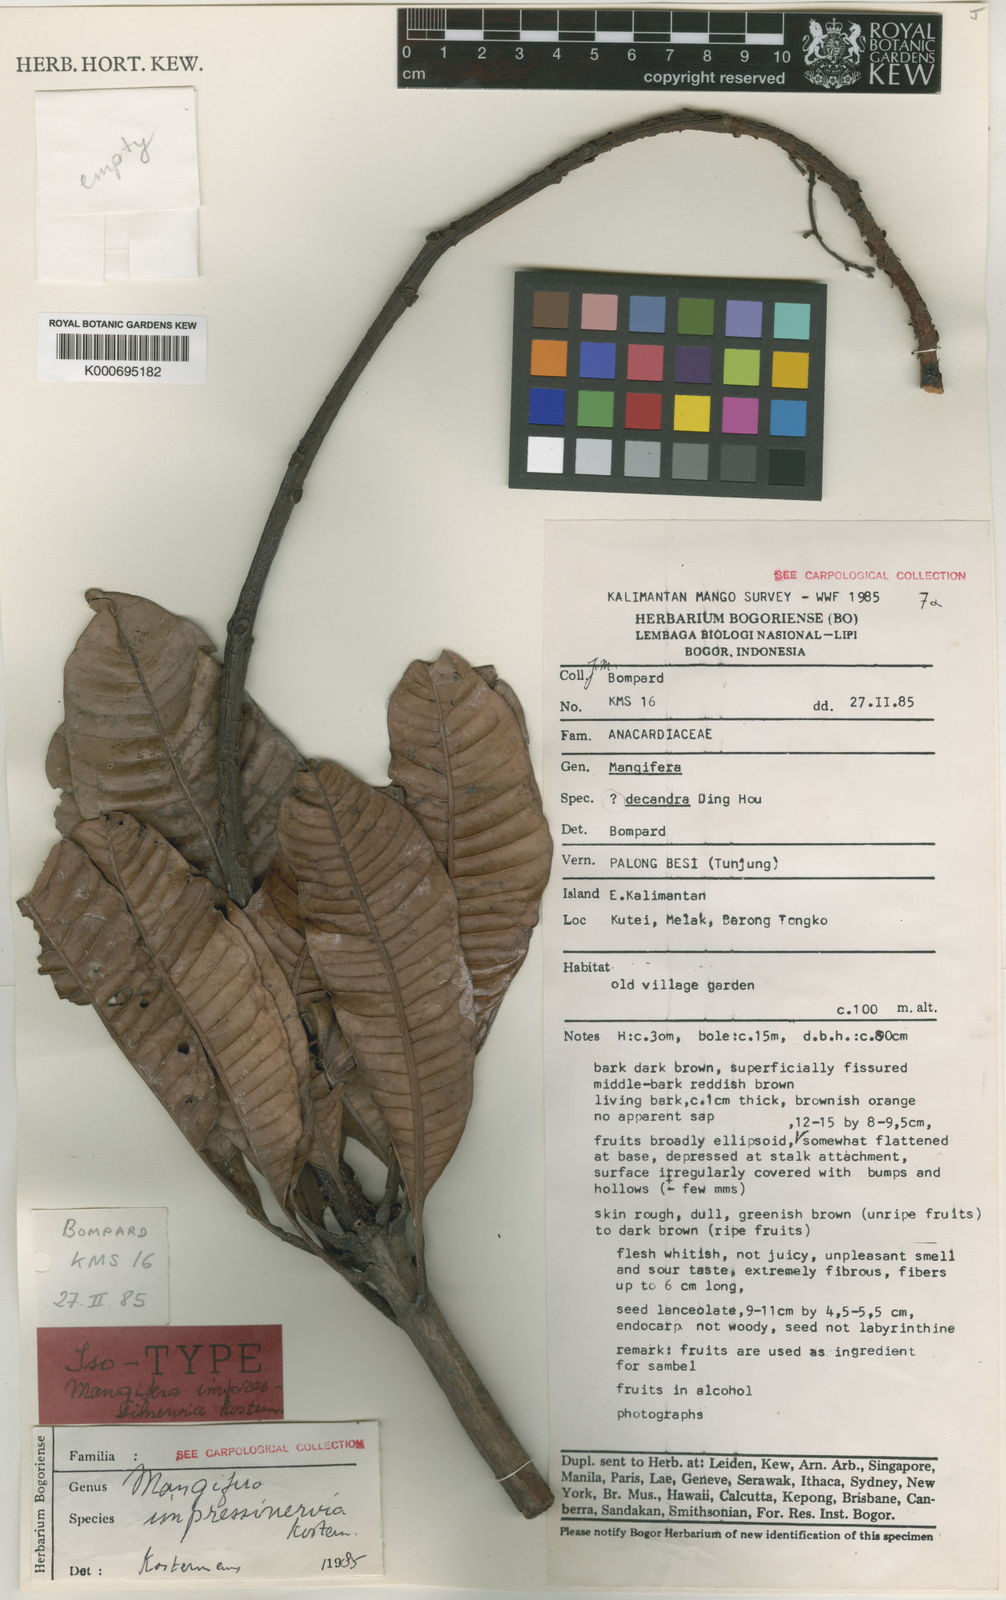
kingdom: Plantae
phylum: Tracheophyta
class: Magnoliopsida
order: Sapindales
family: Anacardiaceae
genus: Mangifera
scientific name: Mangifera
